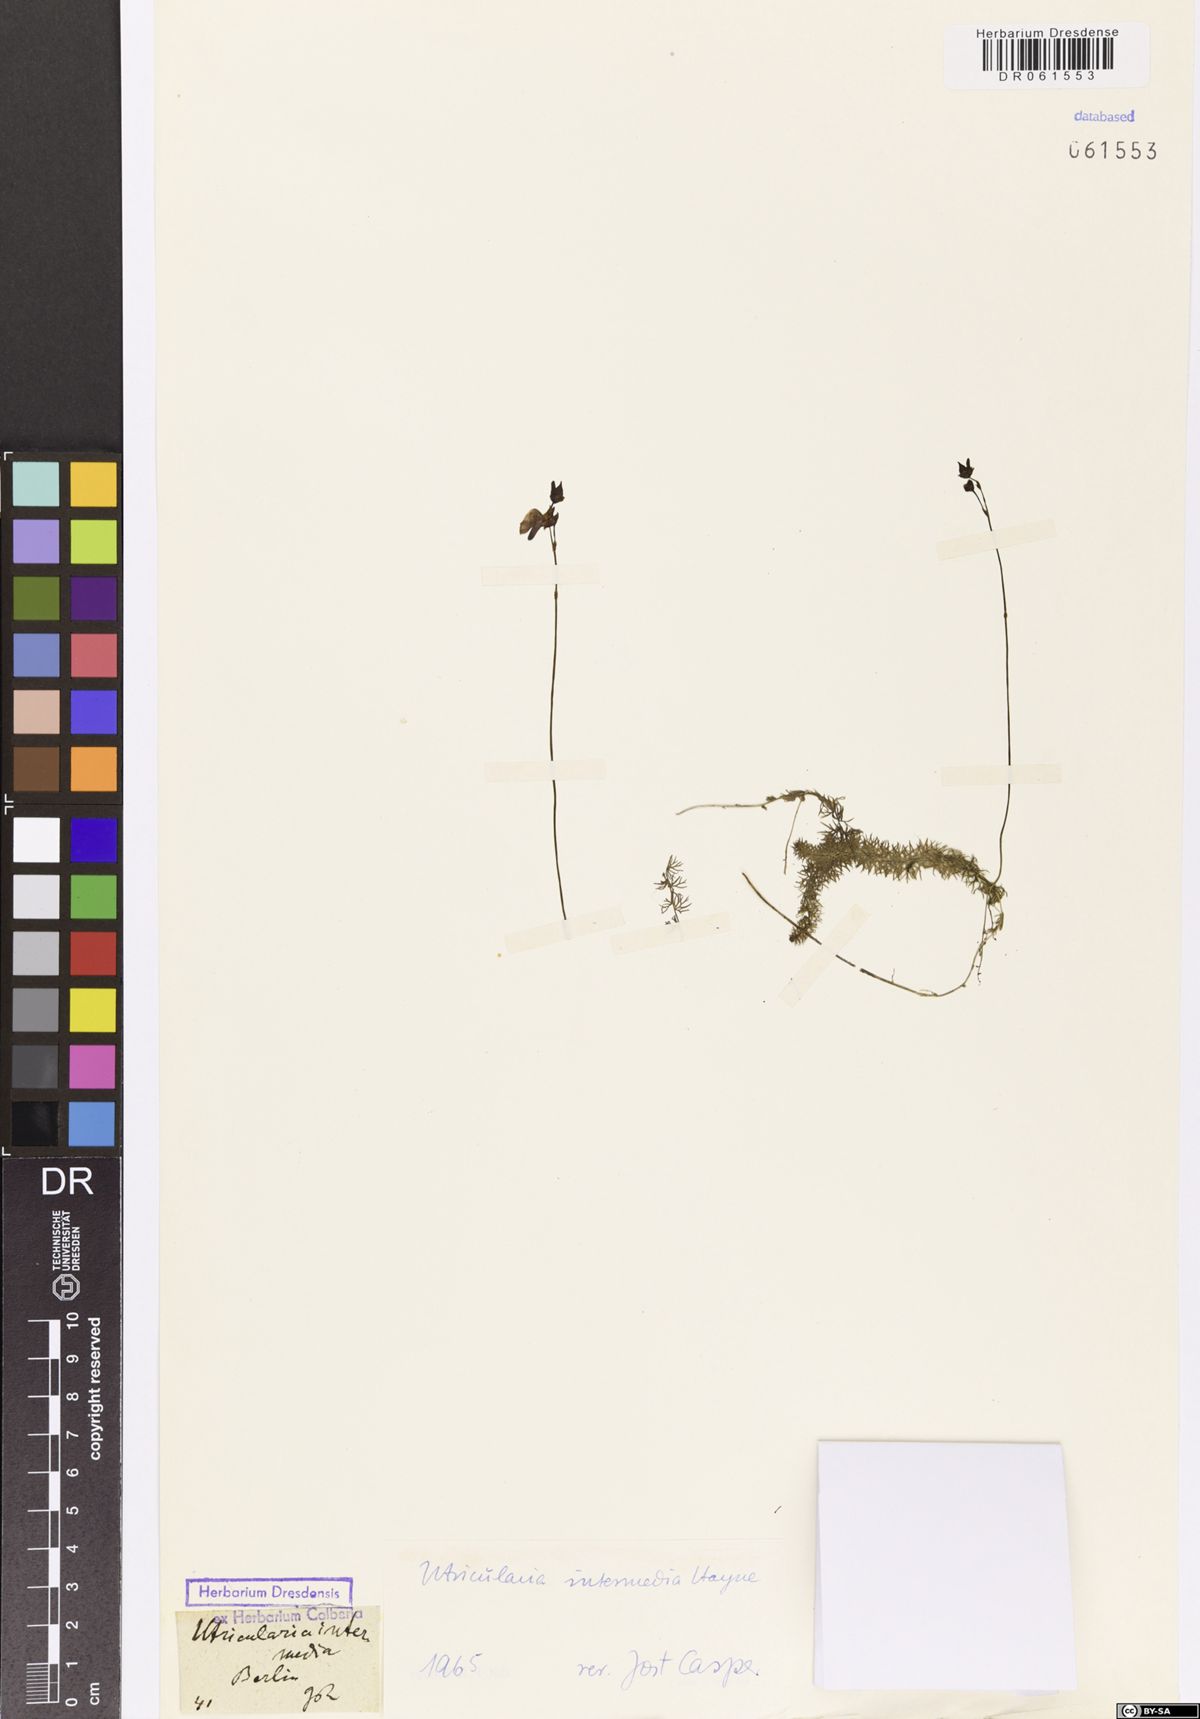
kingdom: Plantae
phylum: Tracheophyta
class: Magnoliopsida
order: Lamiales
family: Lentibulariaceae
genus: Utricularia
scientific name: Utricularia intermedia
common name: Intermediate bladderwort
